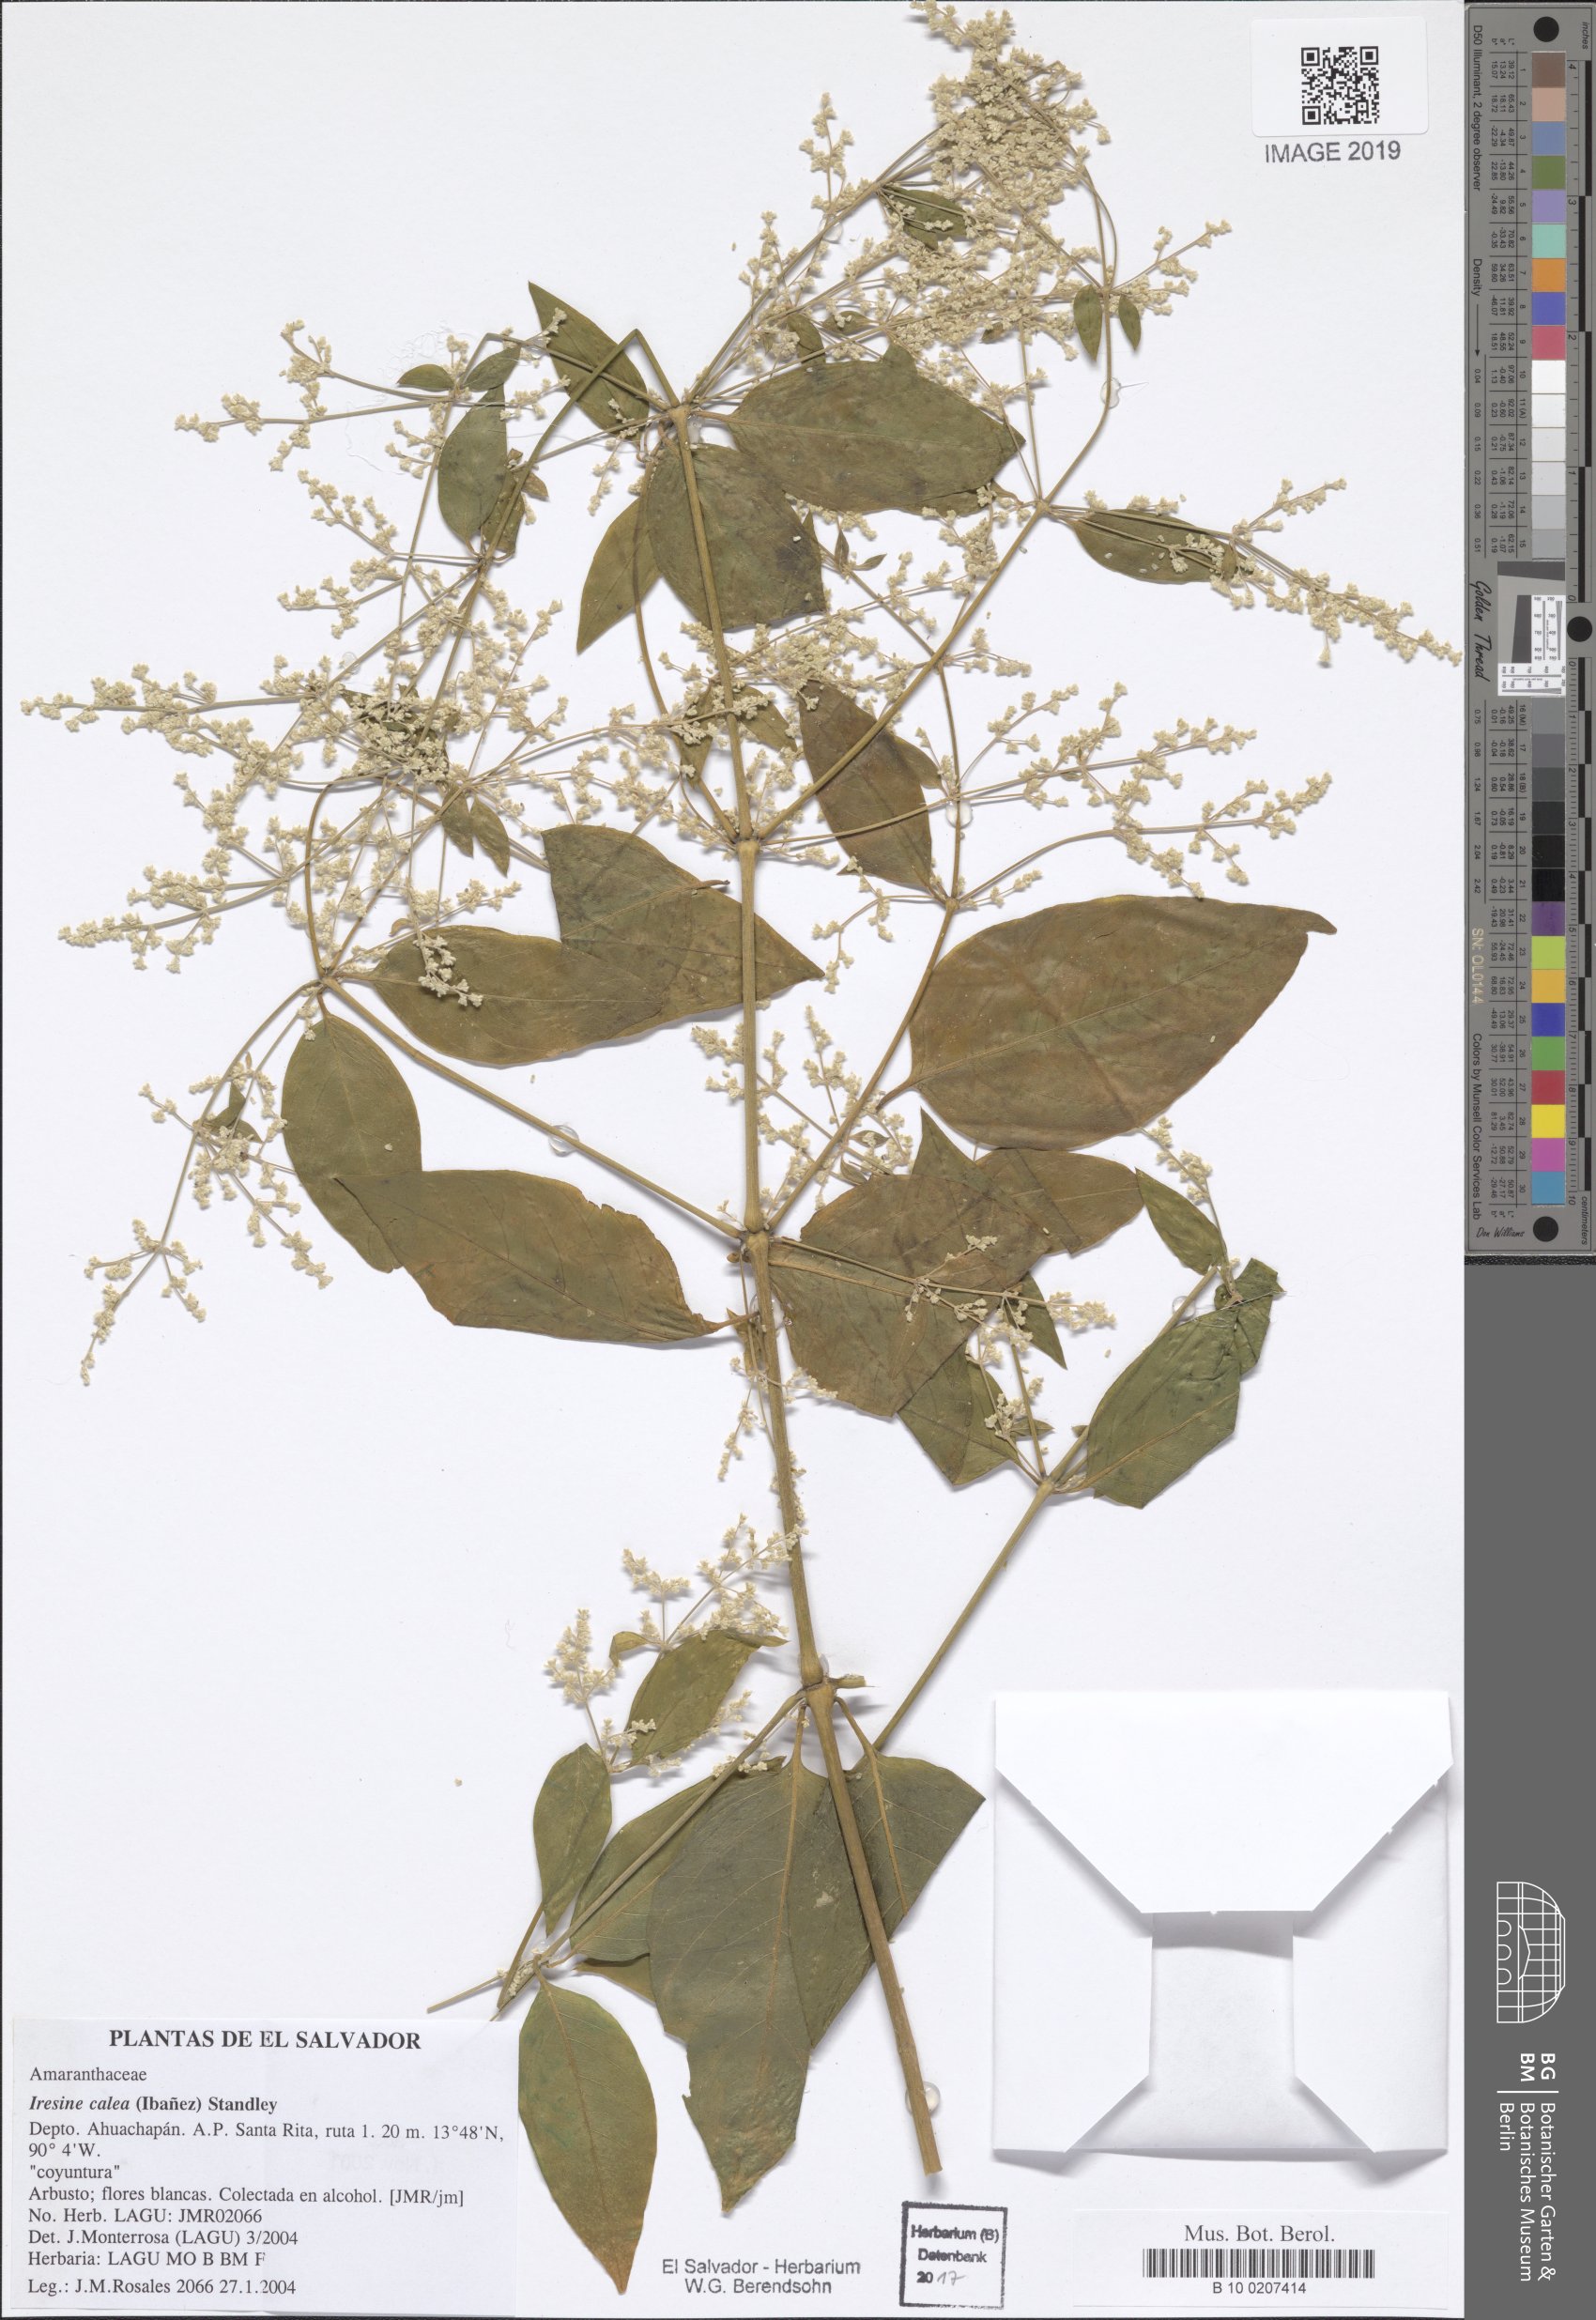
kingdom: Plantae
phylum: Tracheophyta
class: Magnoliopsida
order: Caryophyllales
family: Amaranthaceae
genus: Iresine
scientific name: Iresine latifolia
